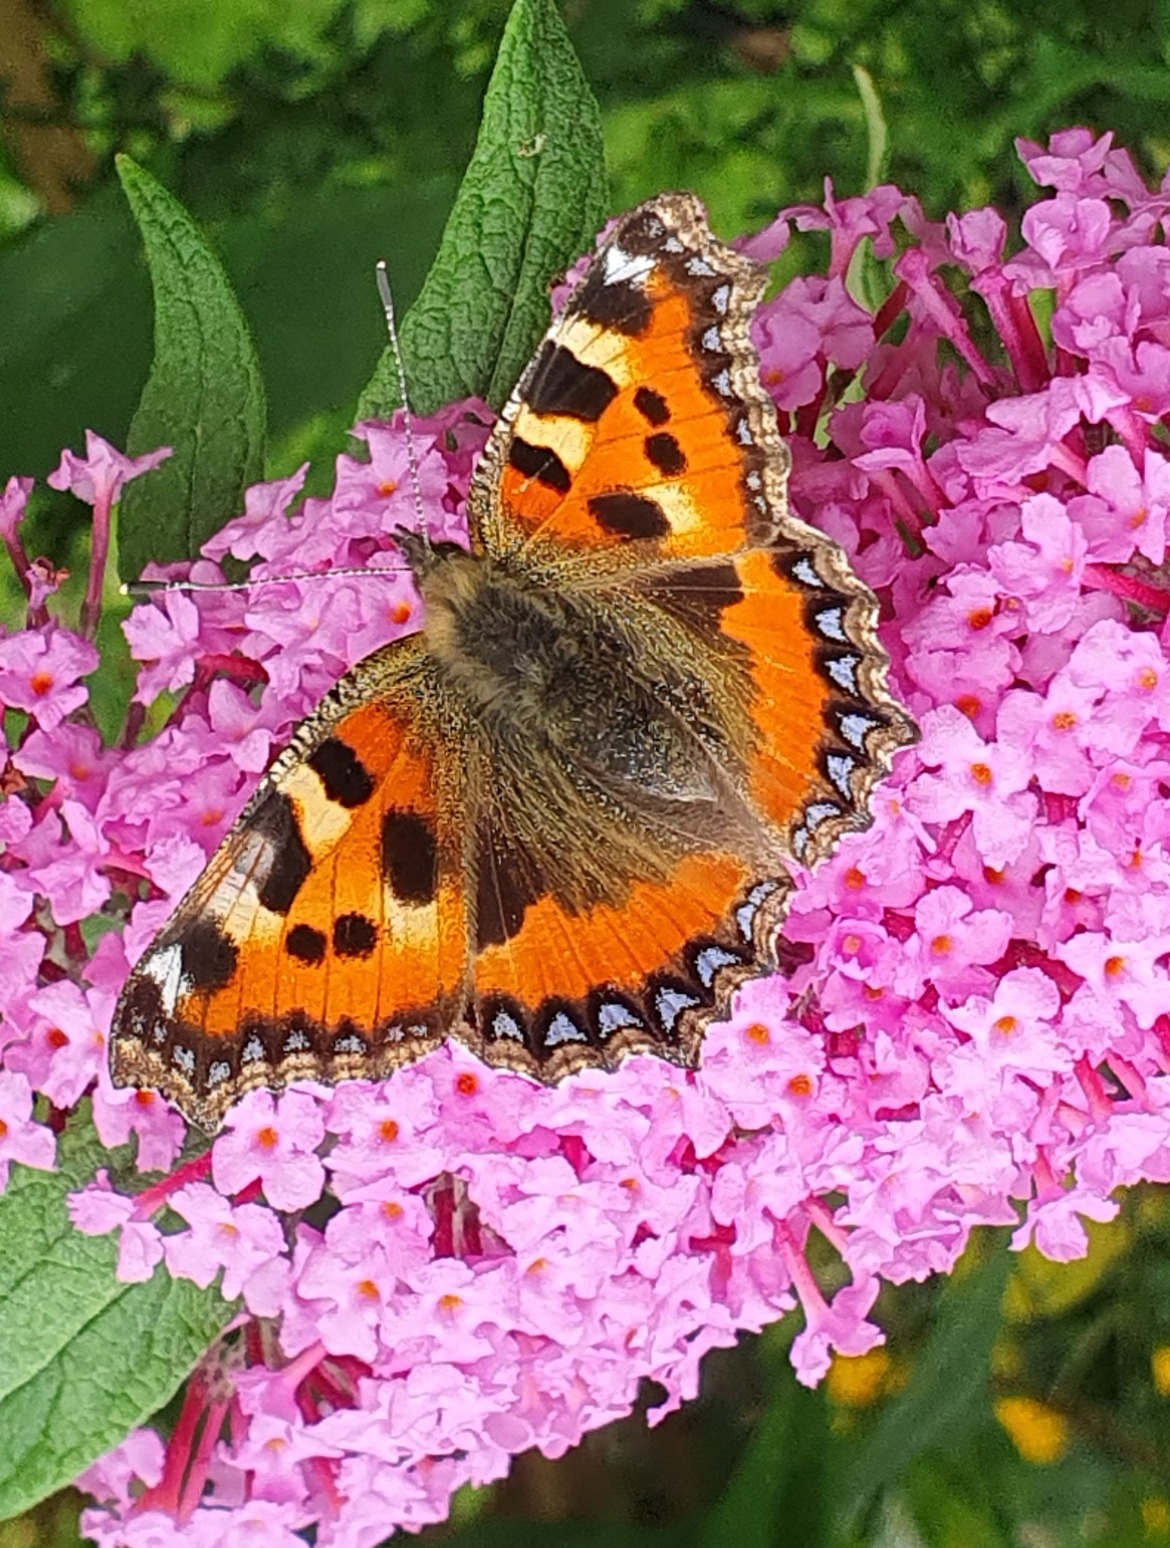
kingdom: Animalia
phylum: Arthropoda
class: Insecta
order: Lepidoptera
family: Nymphalidae
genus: Aglais
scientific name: Aglais urticae
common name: Nældens takvinge
